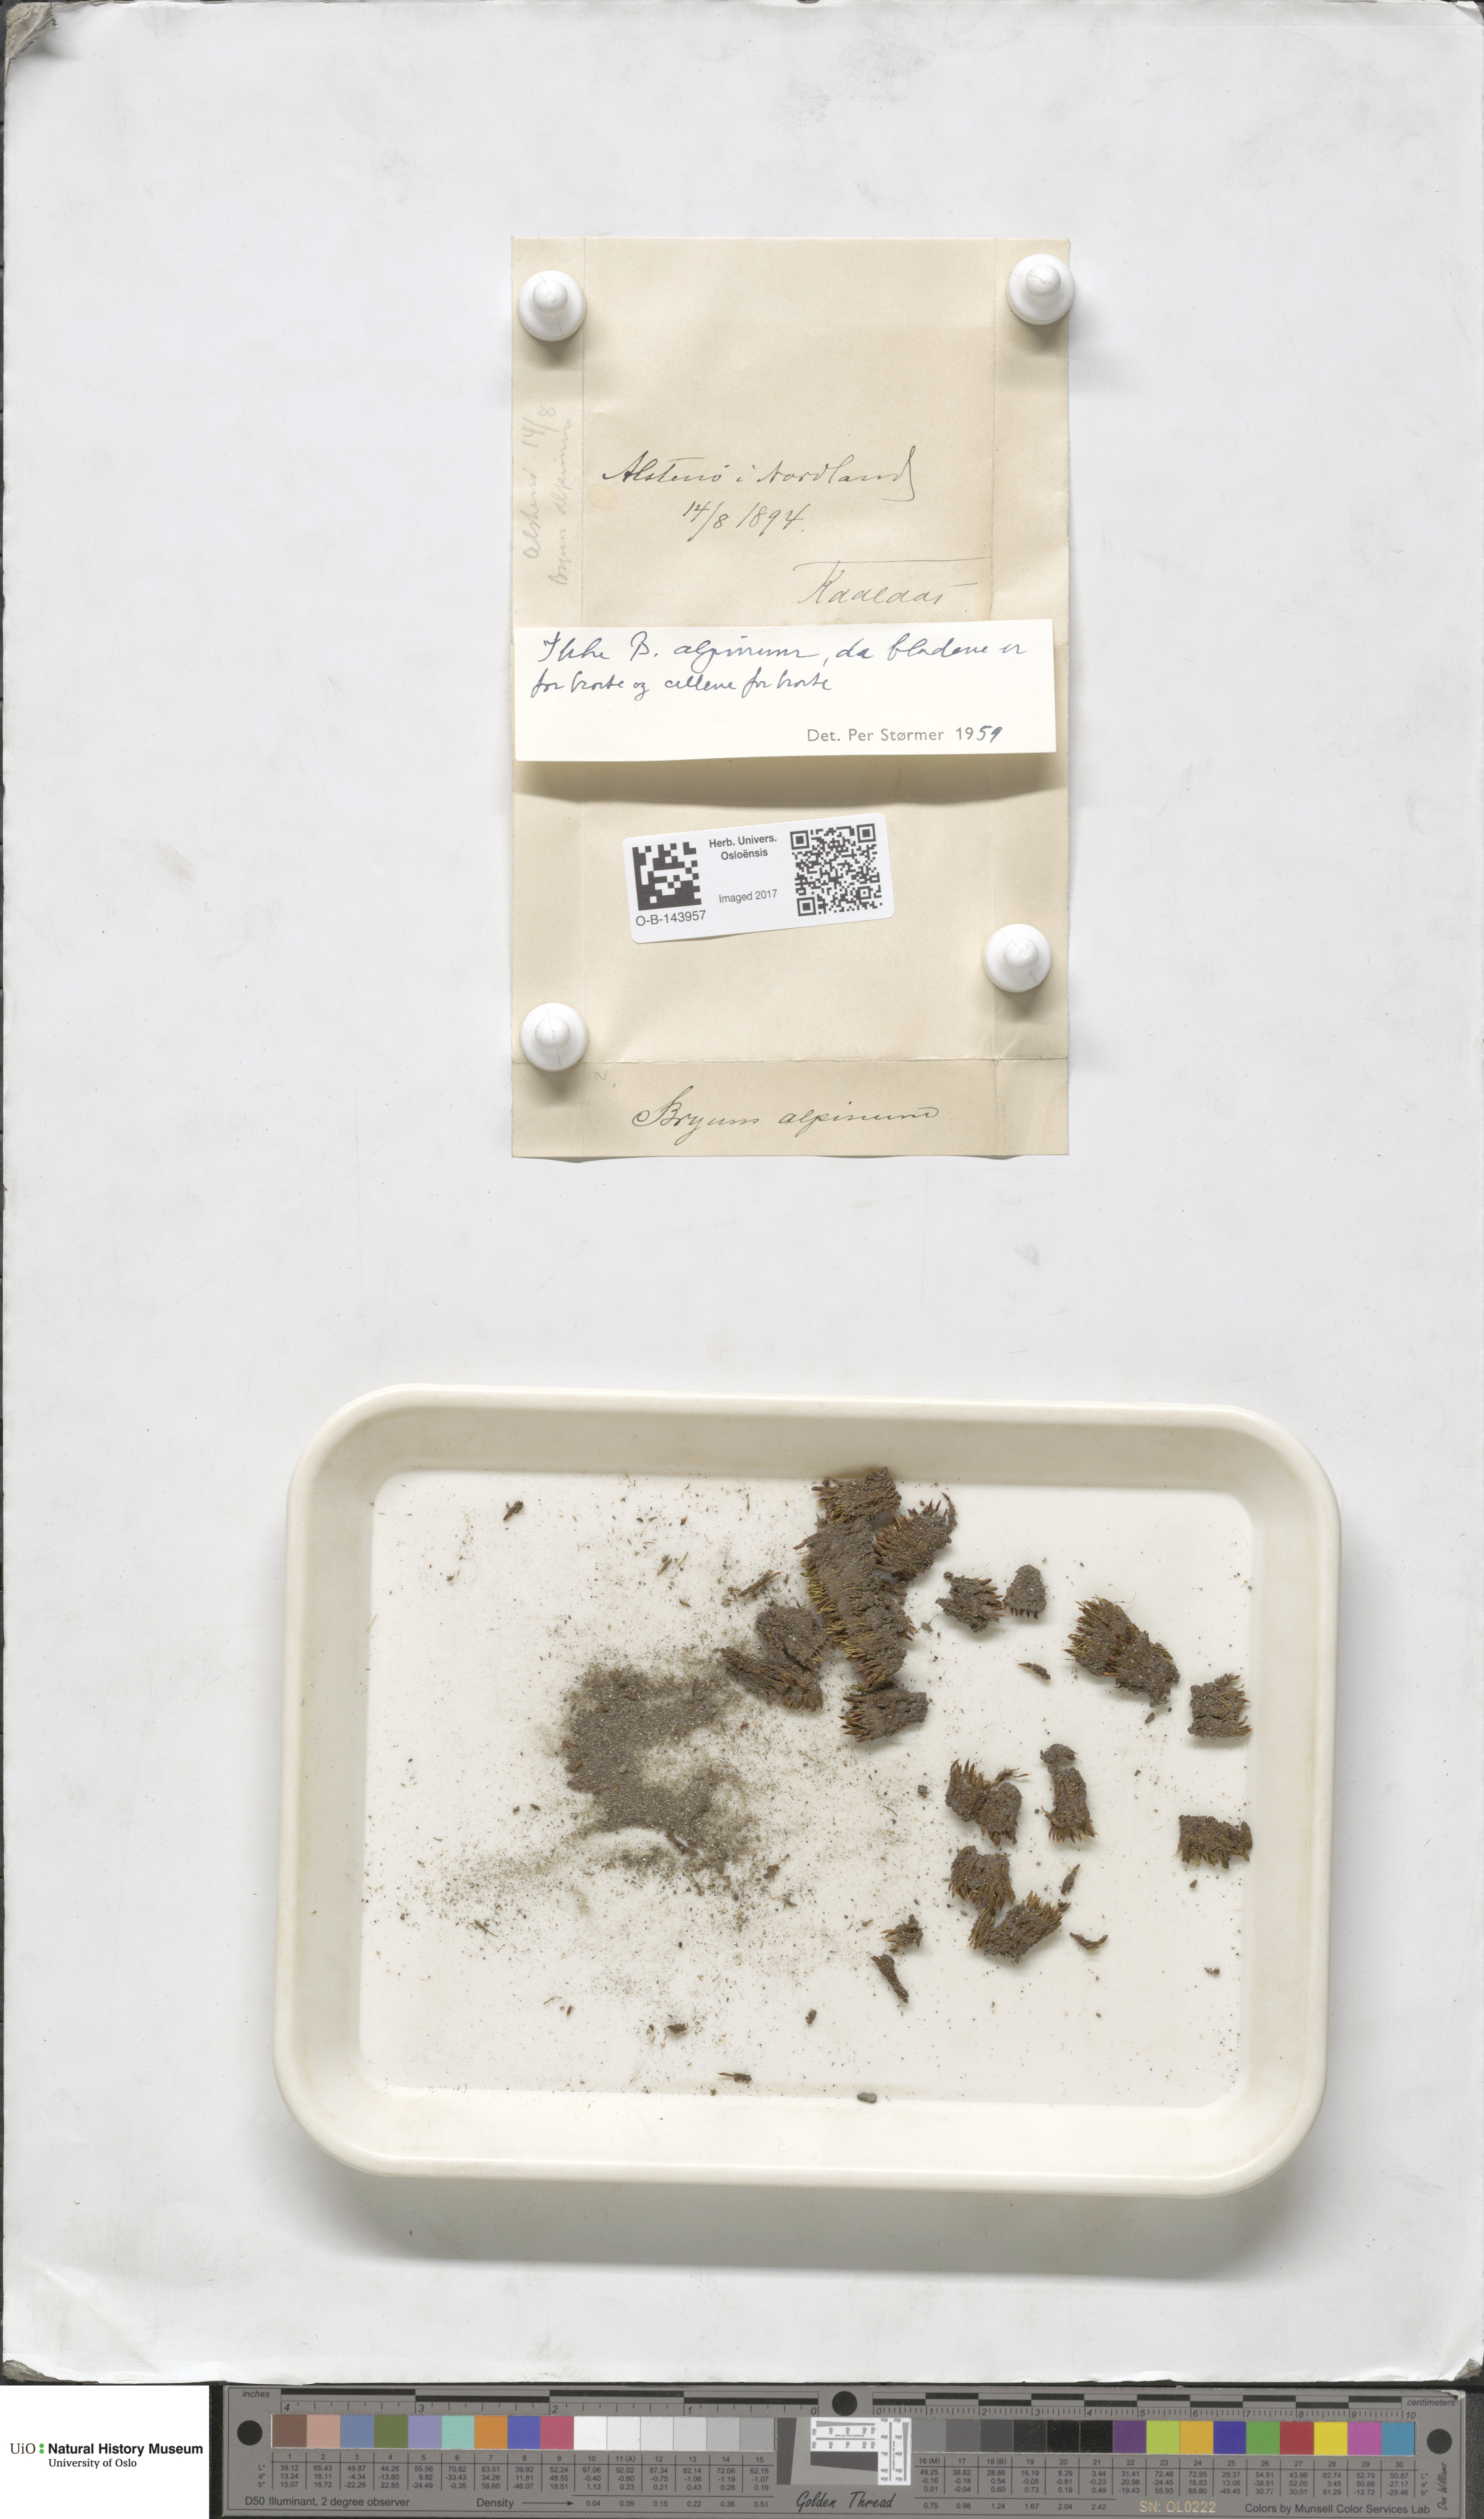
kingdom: Plantae
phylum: Bryophyta
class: Bryopsida
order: Bryales
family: Bryaceae
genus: Bryum
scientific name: Bryum
